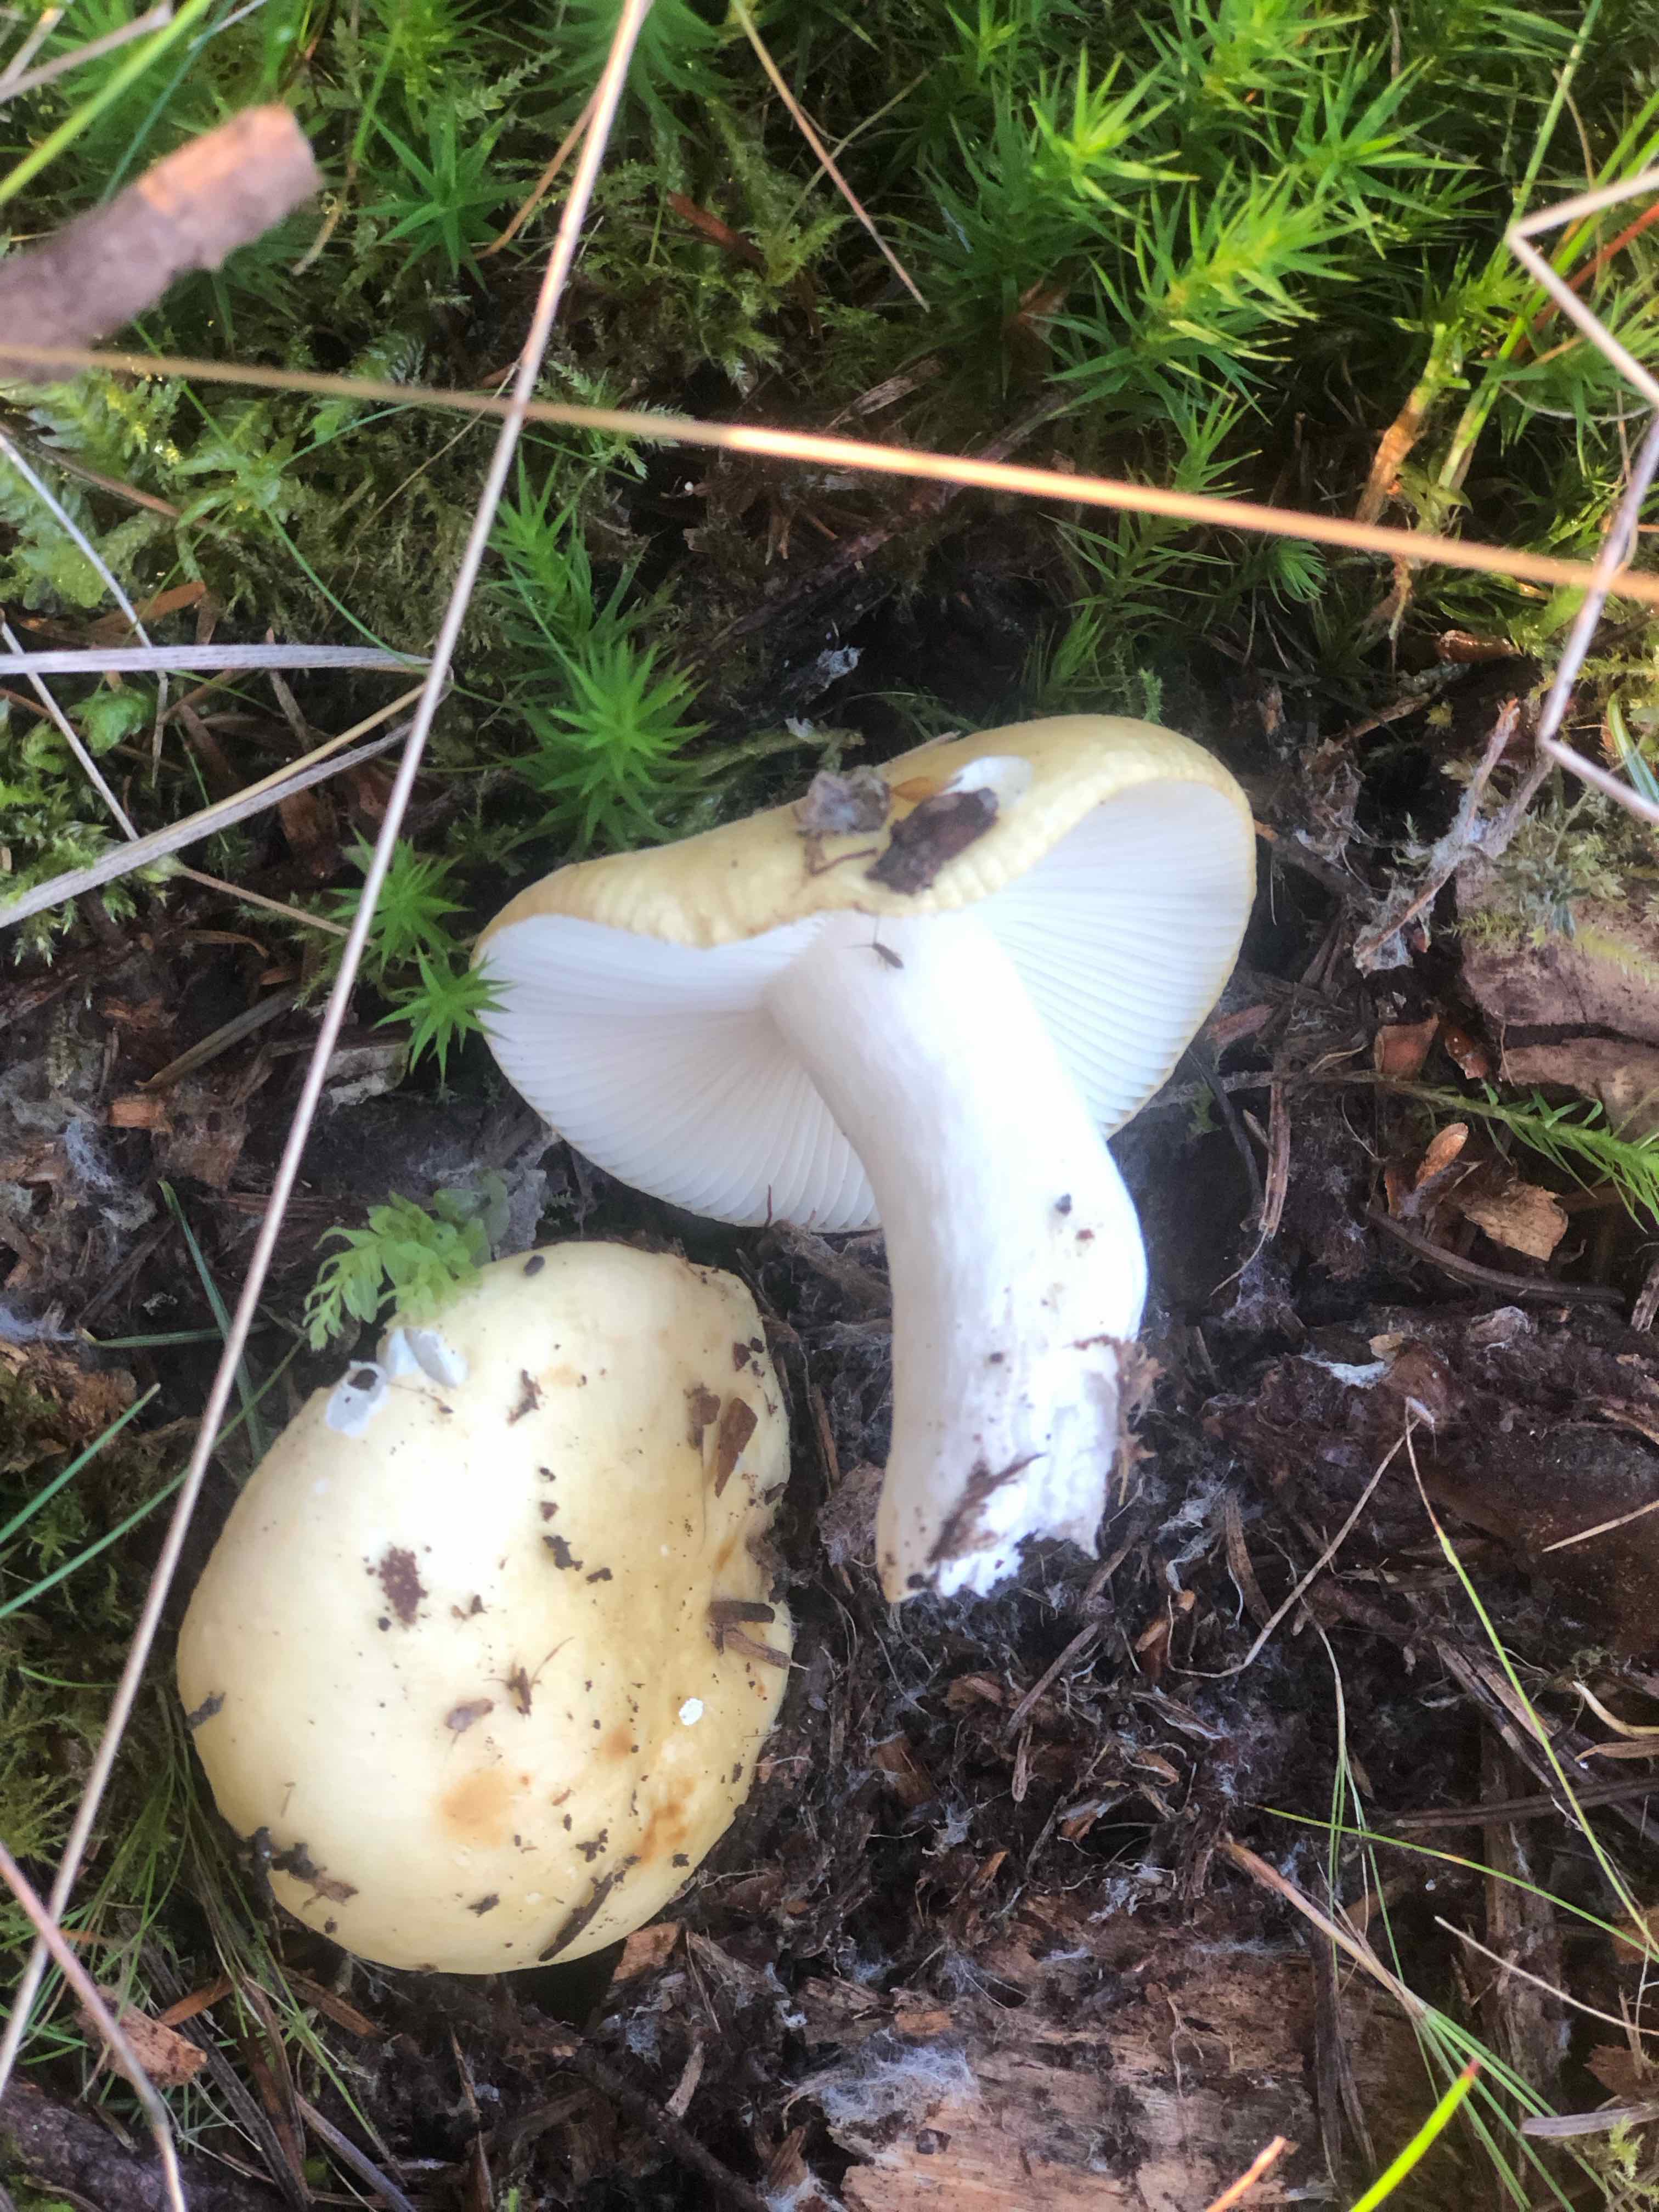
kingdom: Fungi
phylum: Basidiomycota
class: Agaricomycetes
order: Russulales
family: Russulaceae
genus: Russula
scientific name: Russula ochroleuca
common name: okkergul skørhat
